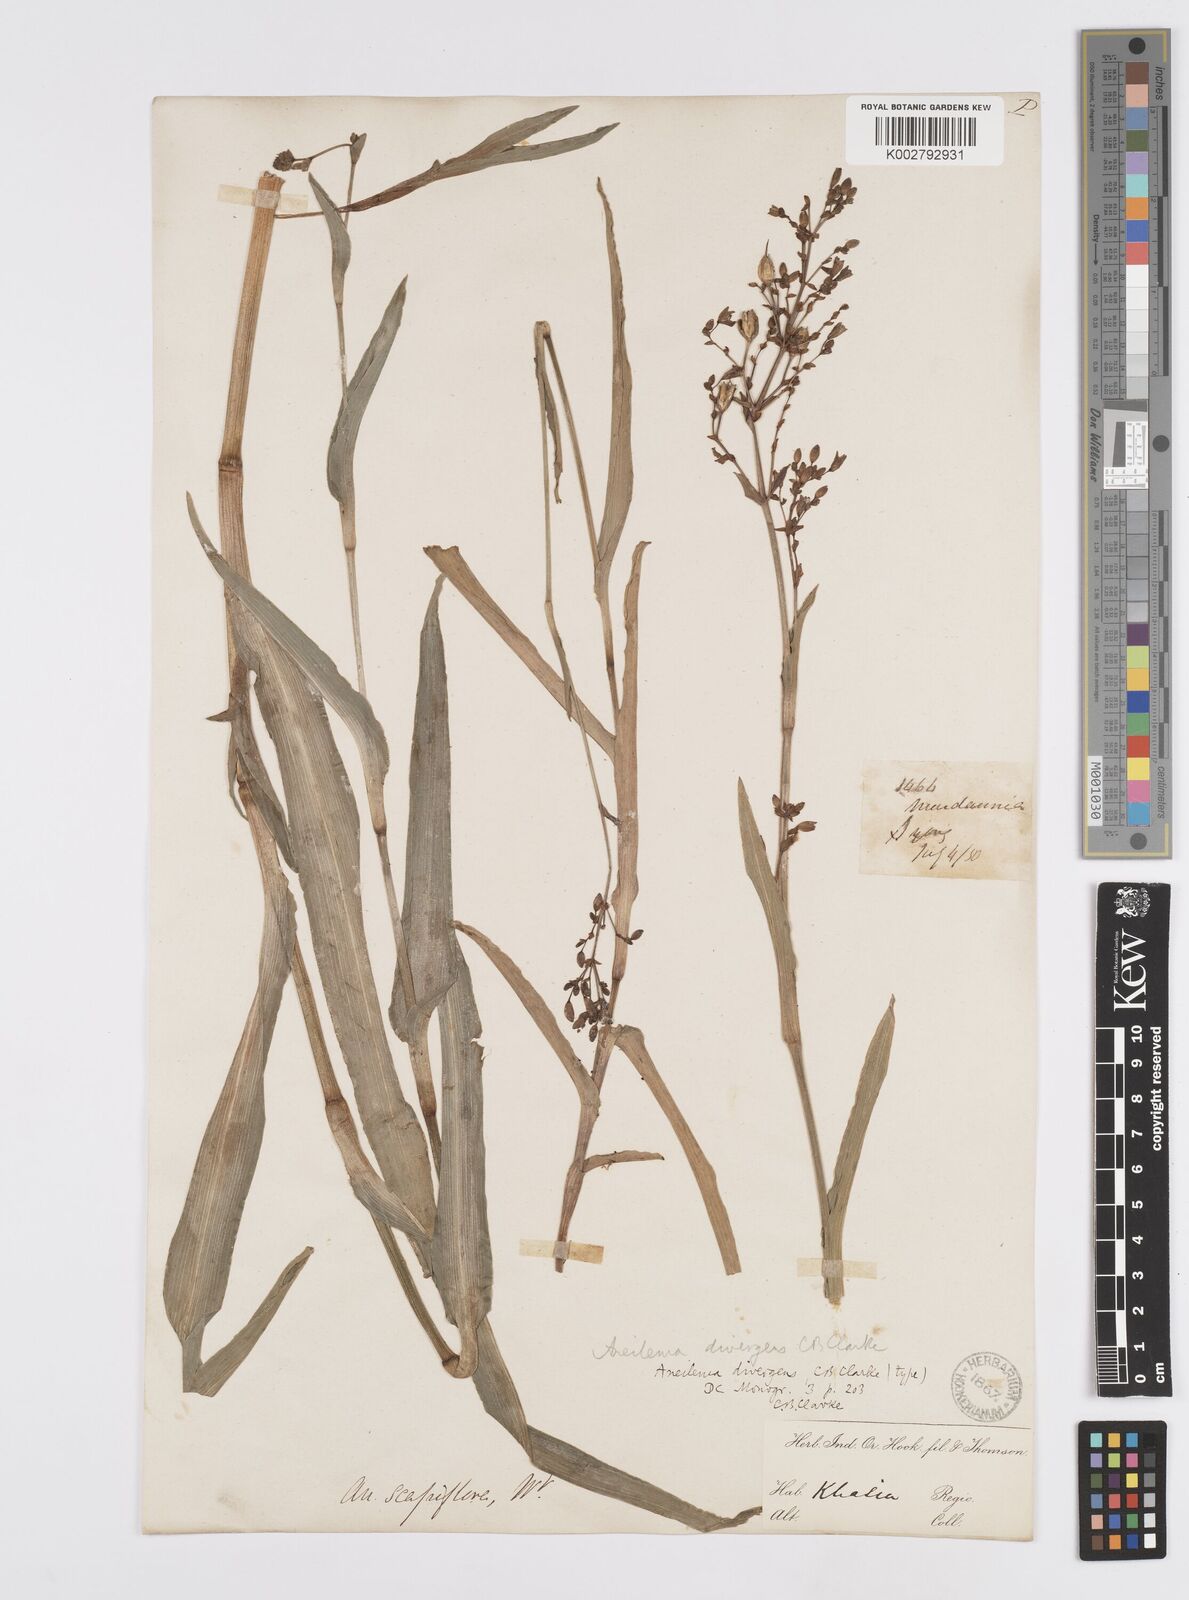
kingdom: Plantae
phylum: Tracheophyta
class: Liliopsida
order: Commelinales
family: Commelinaceae
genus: Murdannia
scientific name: Murdannia divergens
